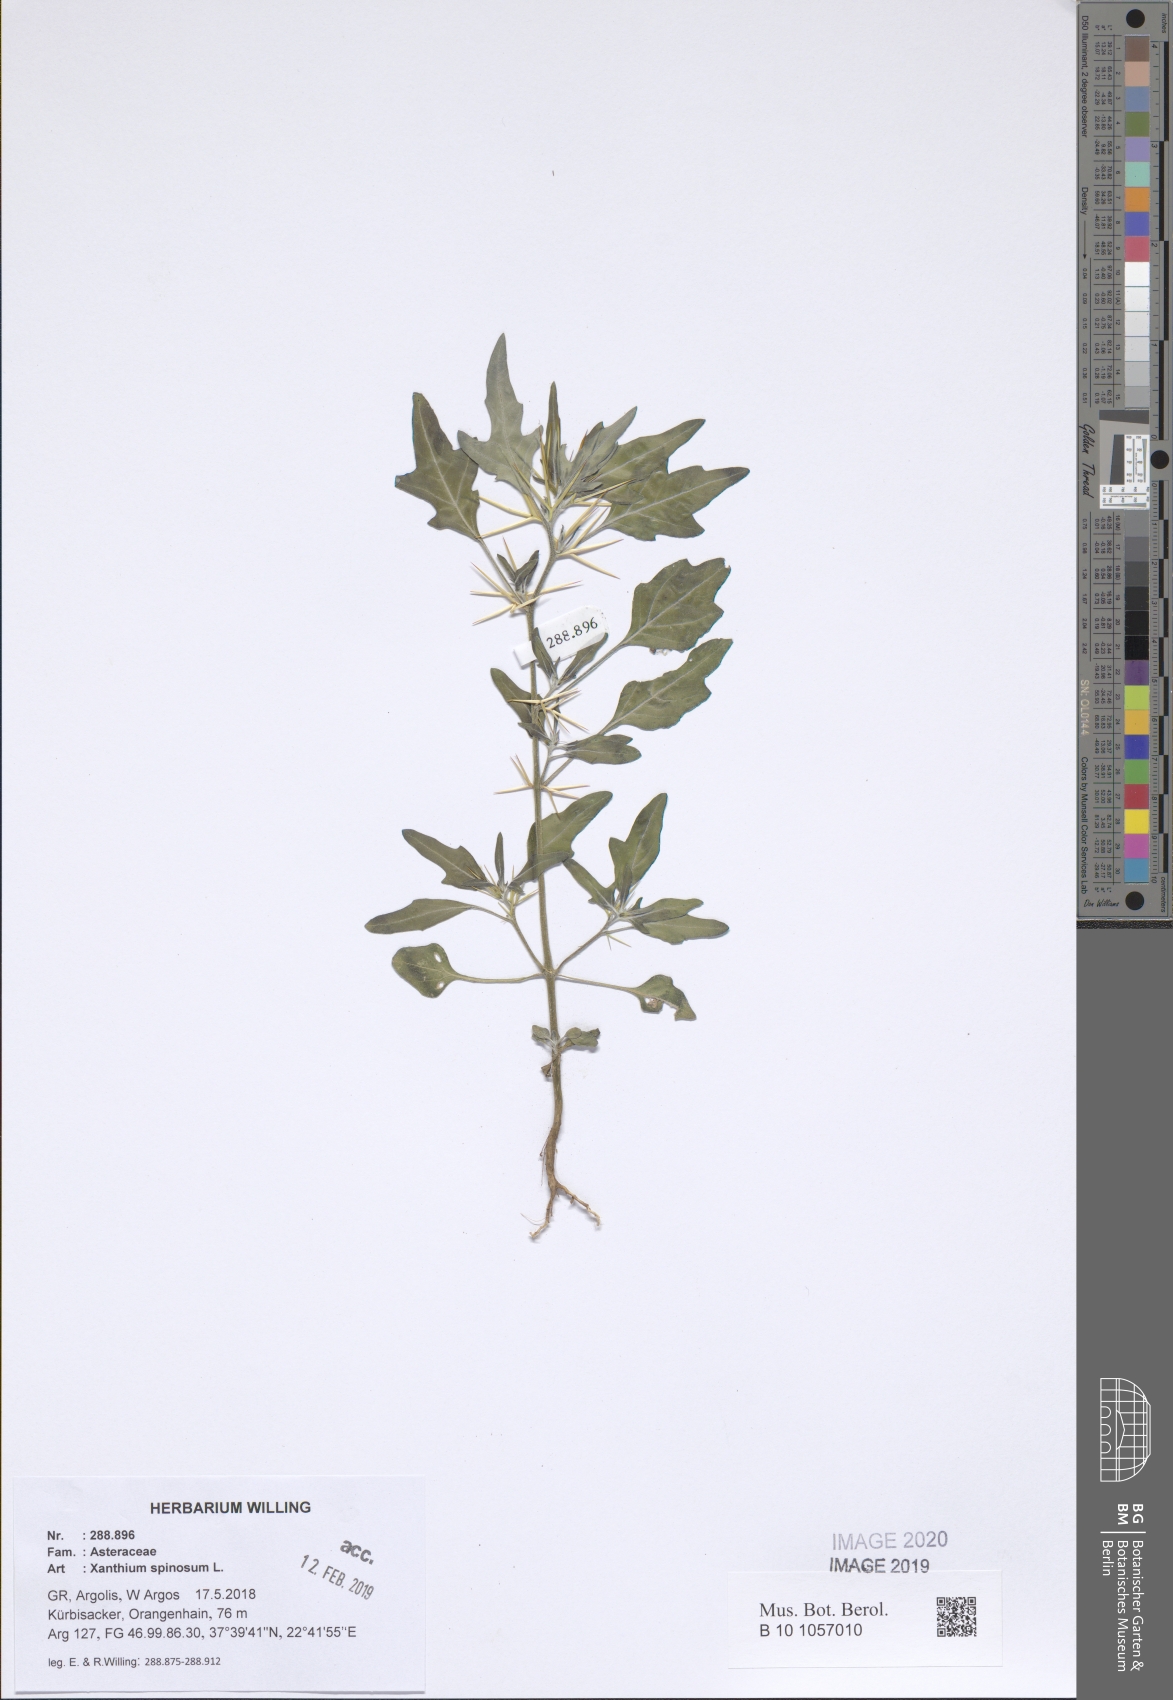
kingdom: Plantae
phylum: Tracheophyta
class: Magnoliopsida
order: Asterales
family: Asteraceae
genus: Xanthium
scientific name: Xanthium spinosum
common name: Spiny cocklebur
